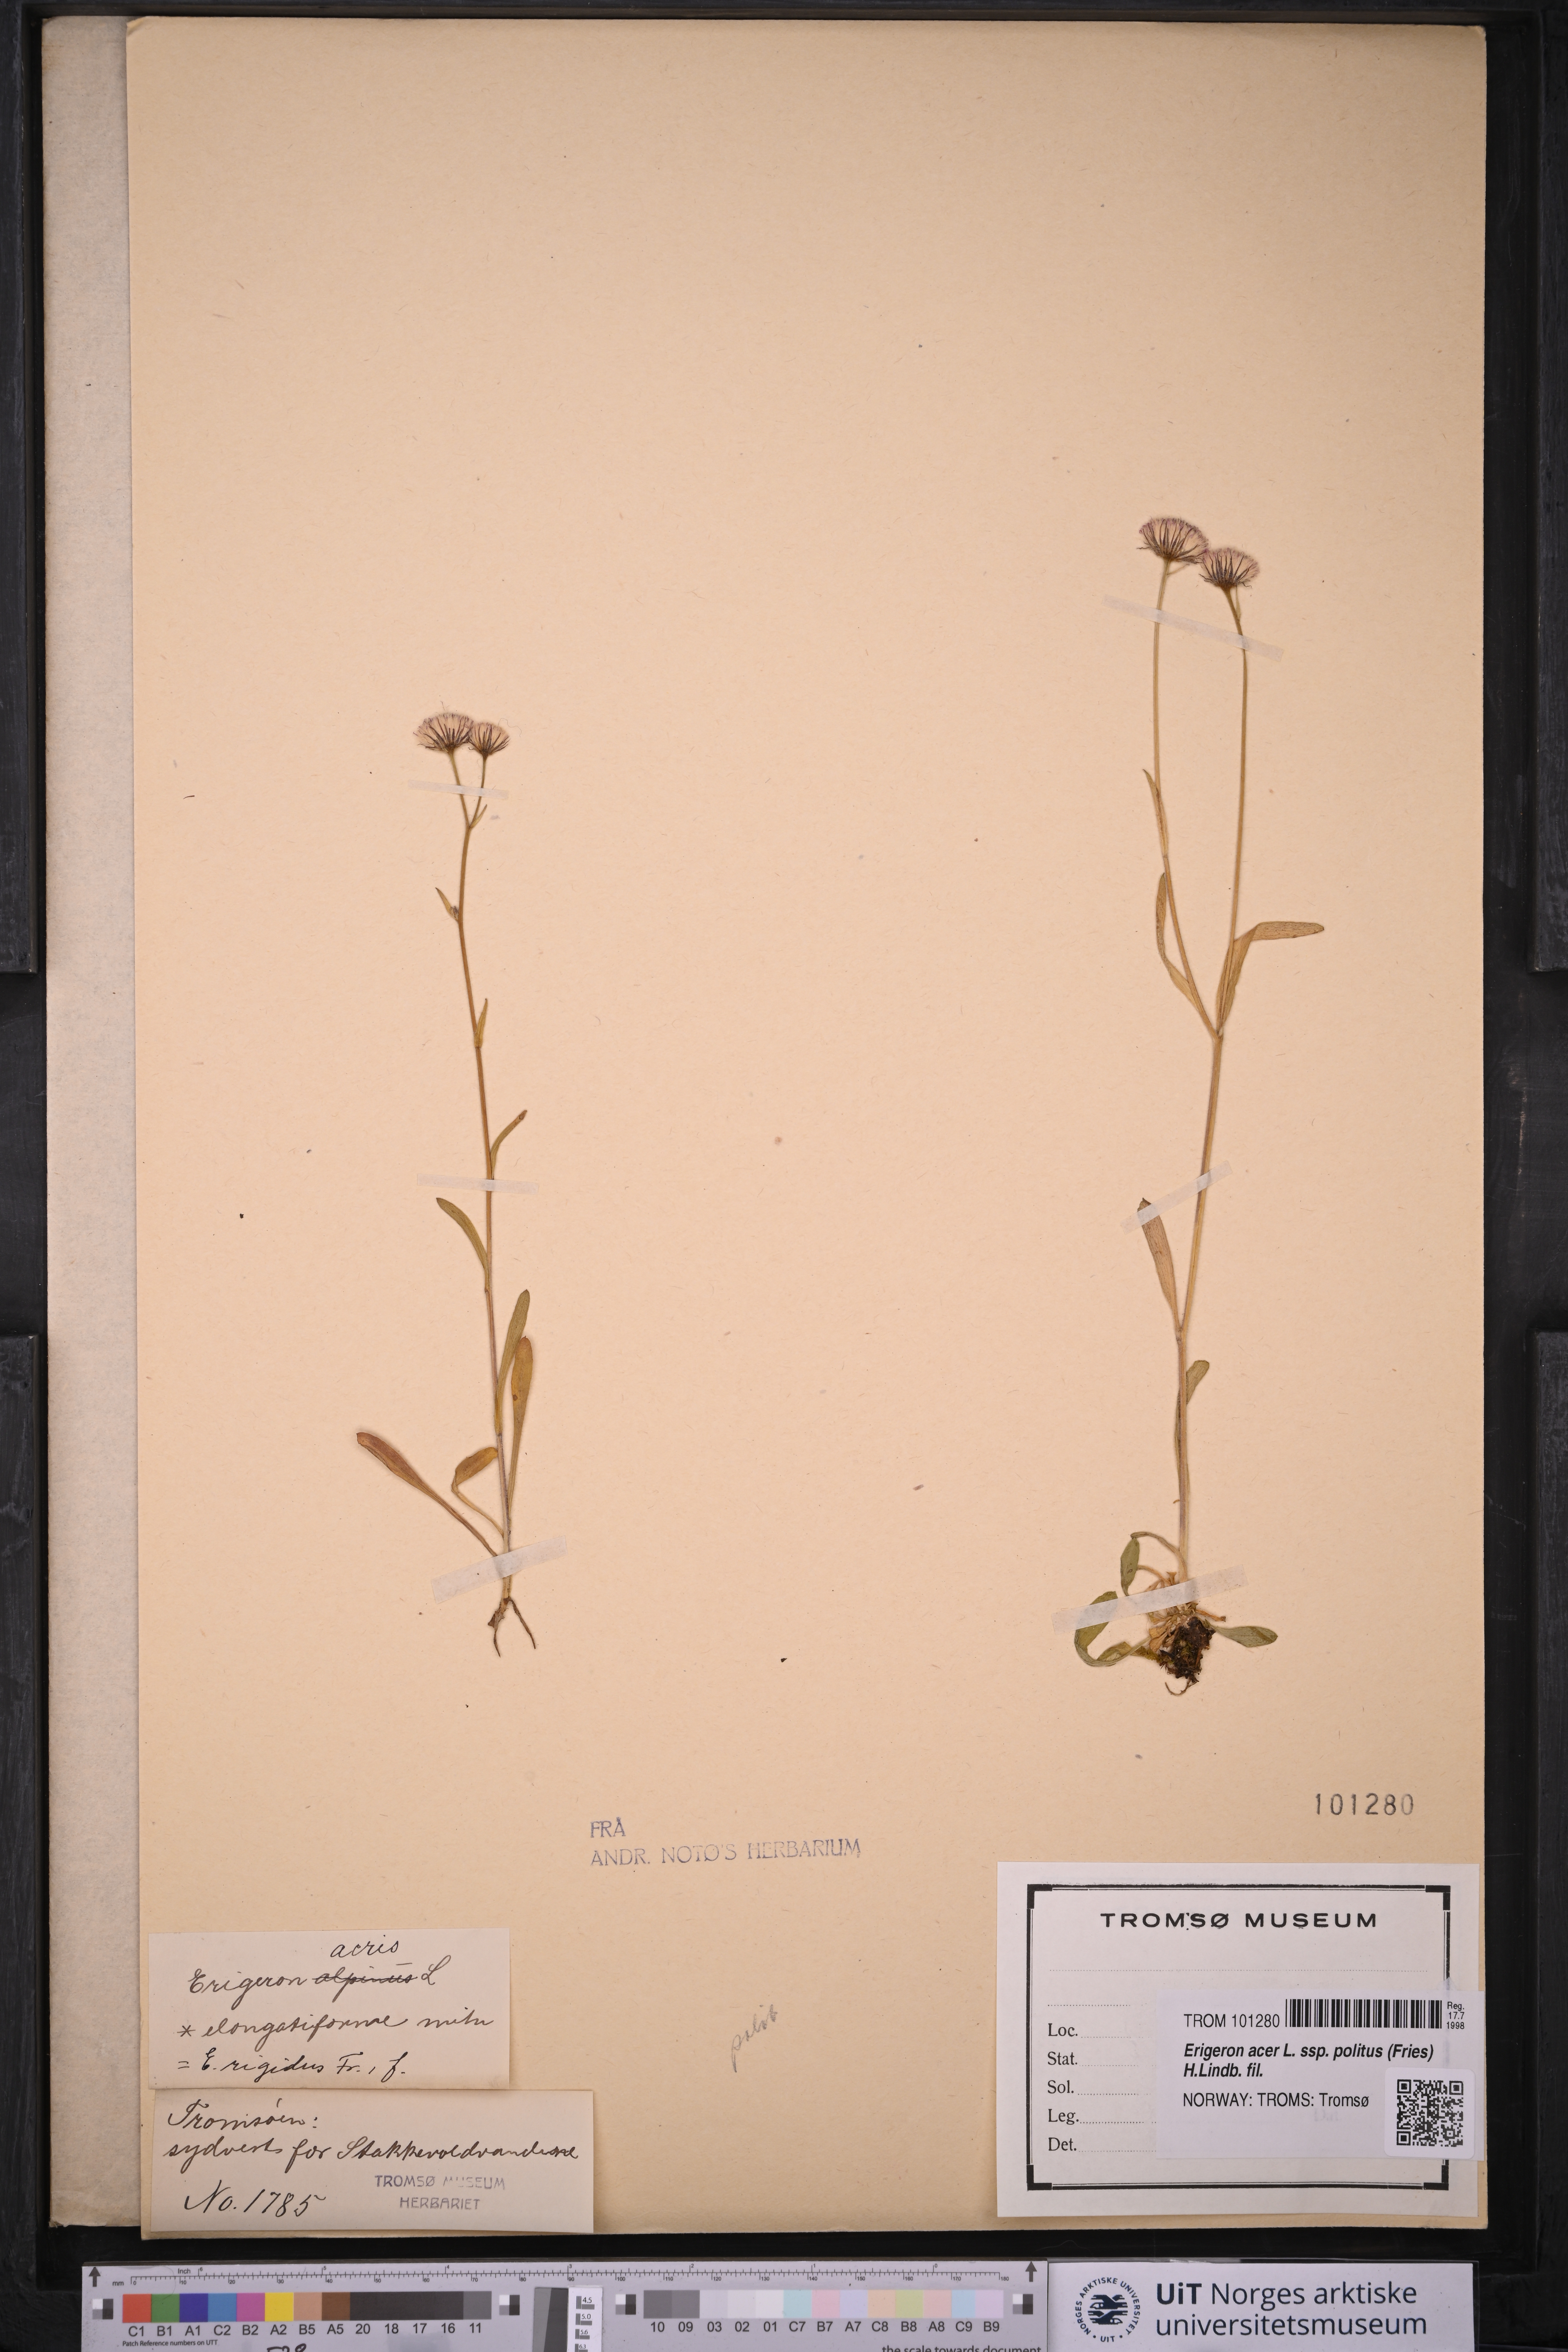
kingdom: Plantae
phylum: Tracheophyta
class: Magnoliopsida
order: Asterales
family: Asteraceae
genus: Erigeron
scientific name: Erigeron politus
